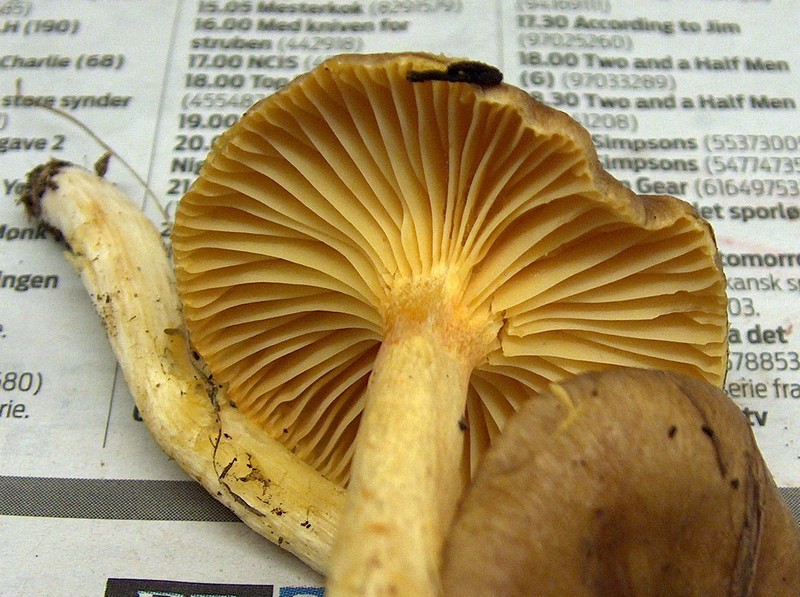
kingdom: Fungi
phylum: Basidiomycota
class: Agaricomycetes
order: Agaricales
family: Hygrophoraceae
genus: Hygrophorus
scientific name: Hygrophorus hypothejus
